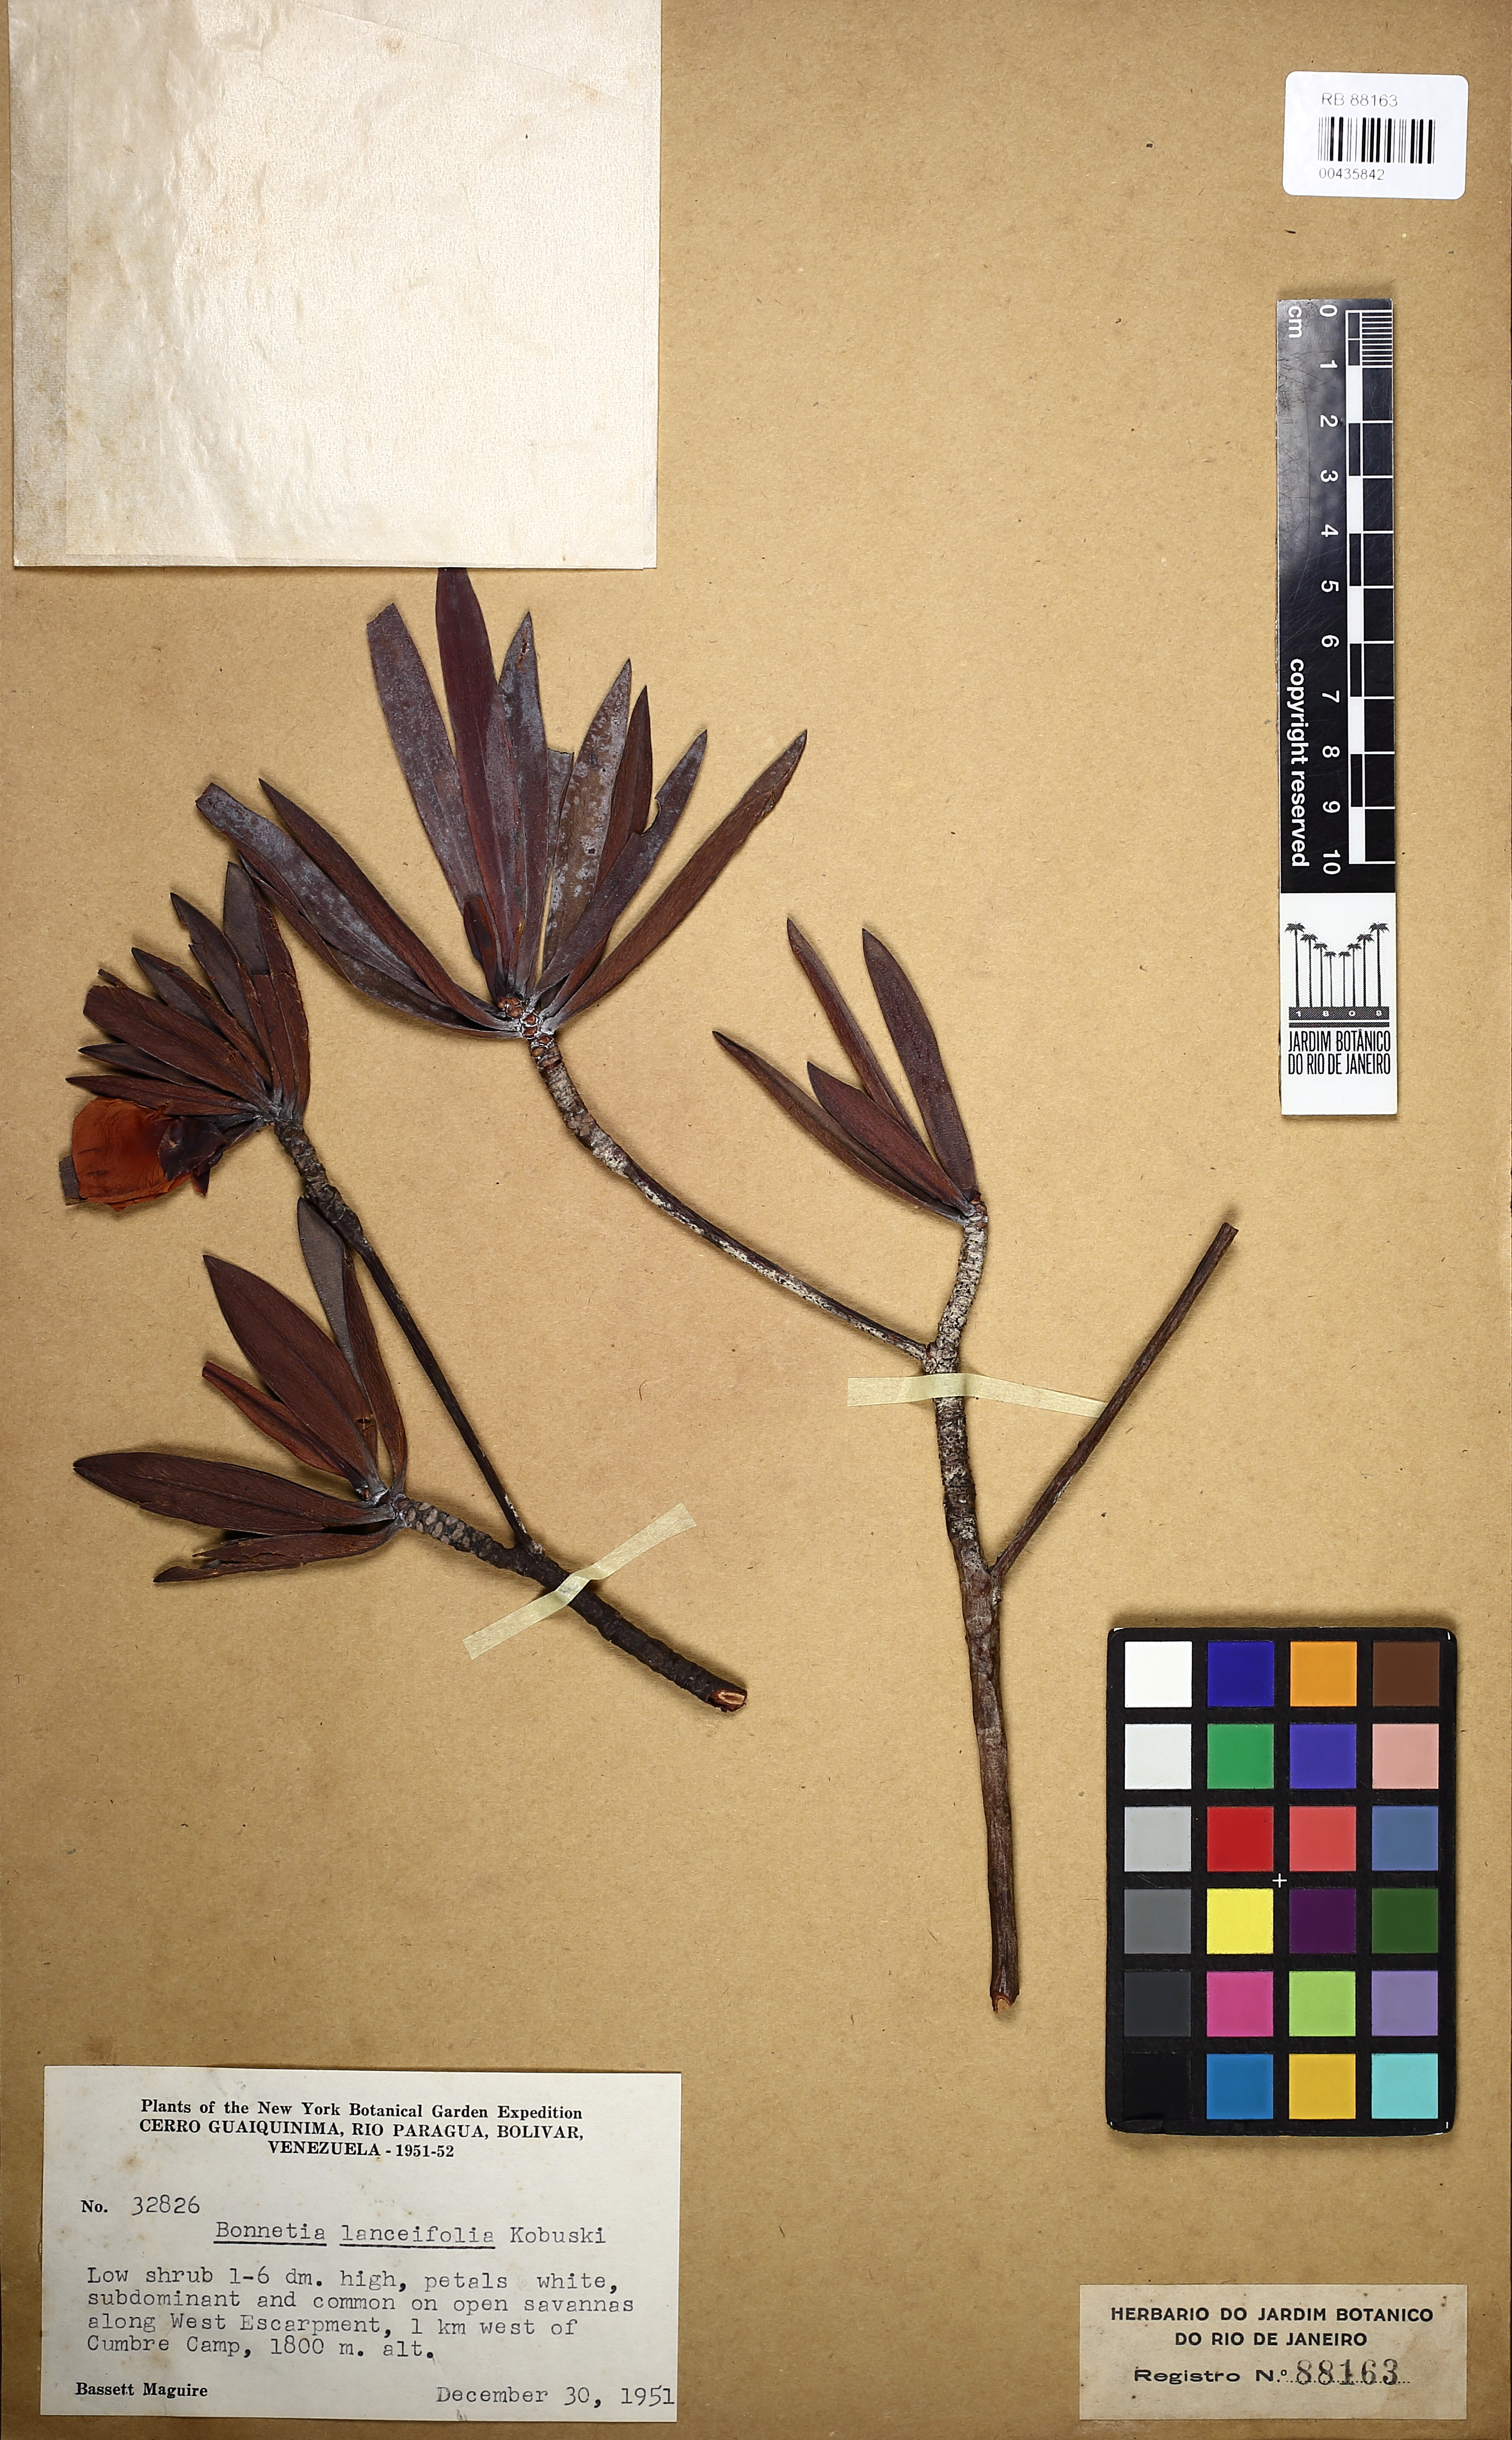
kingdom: Plantae
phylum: Tracheophyta
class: Magnoliopsida
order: Malpighiales
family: Bonnetiaceae
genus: Bonnetia
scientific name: Bonnetia lanceifolia
